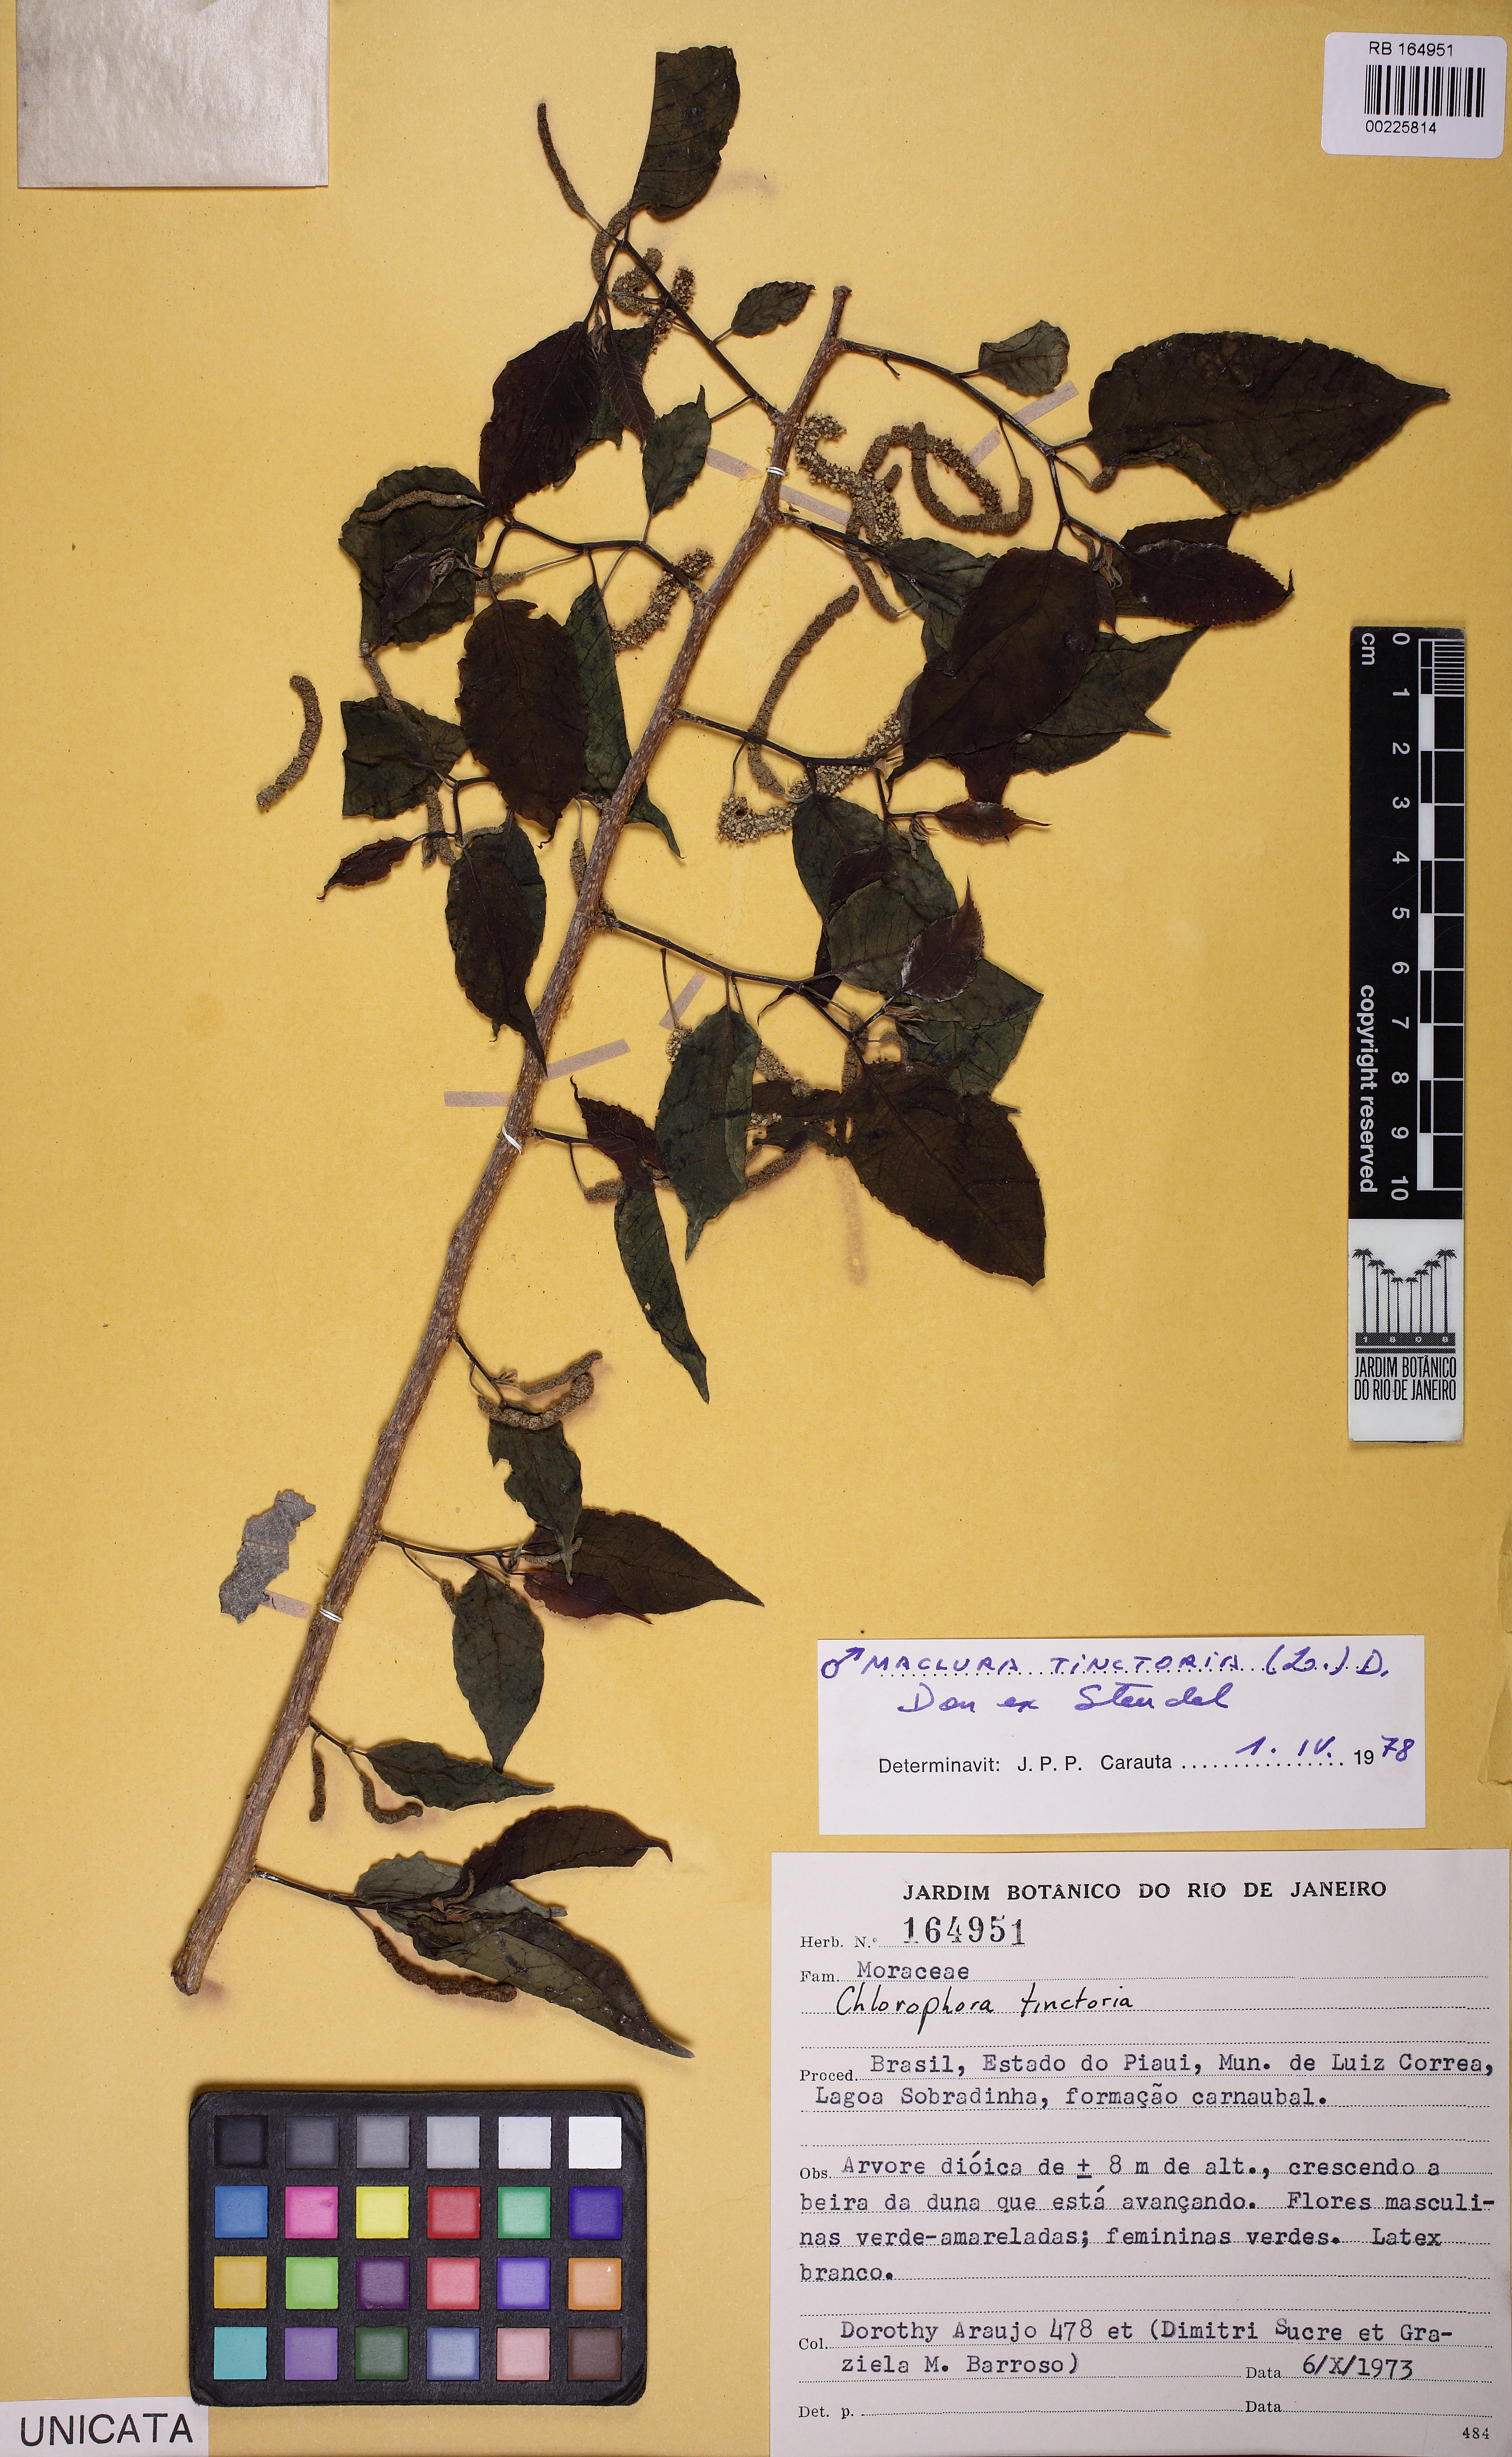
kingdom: Plantae
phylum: Tracheophyta
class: Magnoliopsida
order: Rosales
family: Moraceae
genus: Maclura
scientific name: Maclura tinctoria
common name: Old fustic
